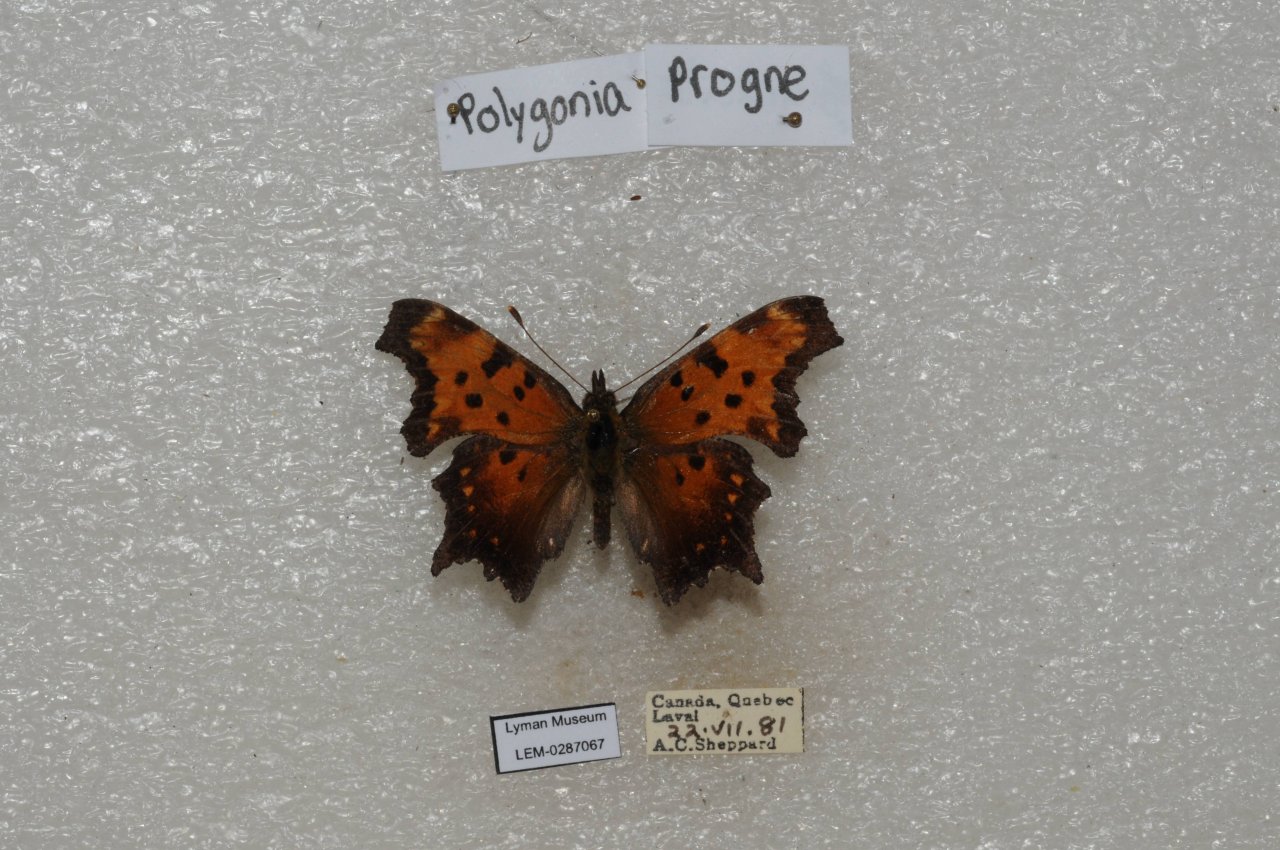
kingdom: Animalia
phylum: Arthropoda
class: Insecta
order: Lepidoptera
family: Nymphalidae
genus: Polygonia
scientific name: Polygonia progne
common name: Gray Comma
